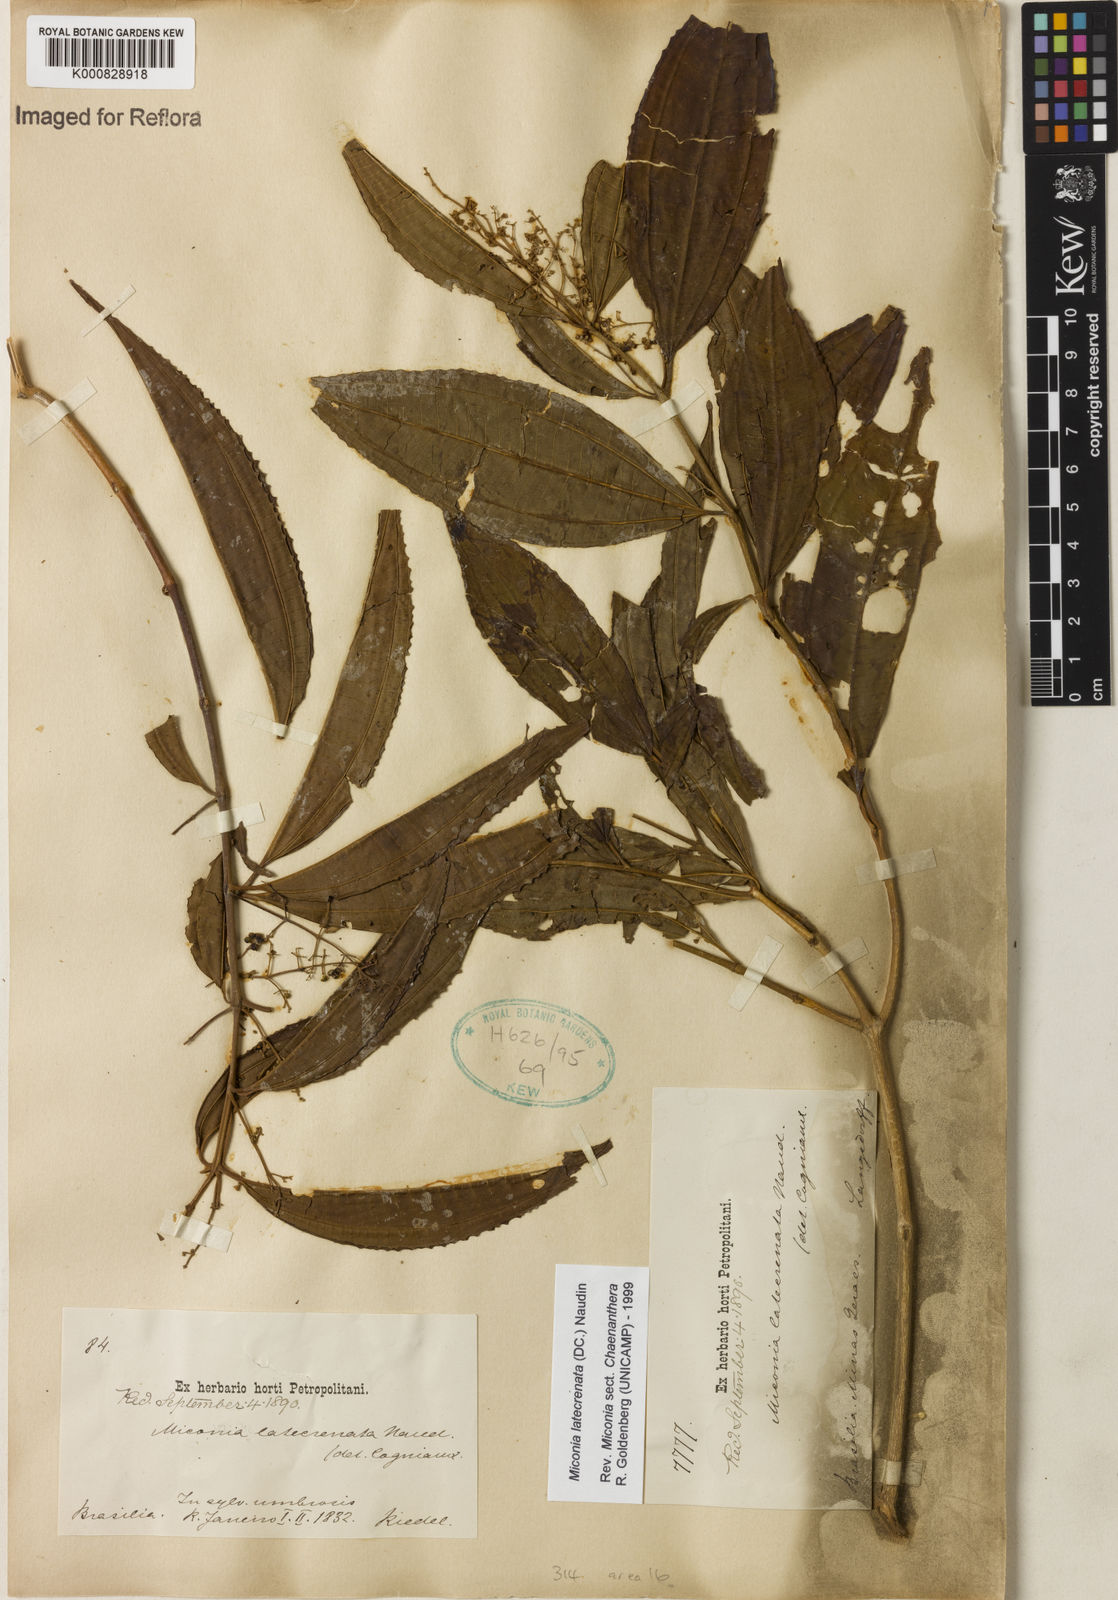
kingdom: Plantae
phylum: Tracheophyta
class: Magnoliopsida
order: Myrtales
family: Melastomataceae
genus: Miconia
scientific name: Miconia latecrenata
